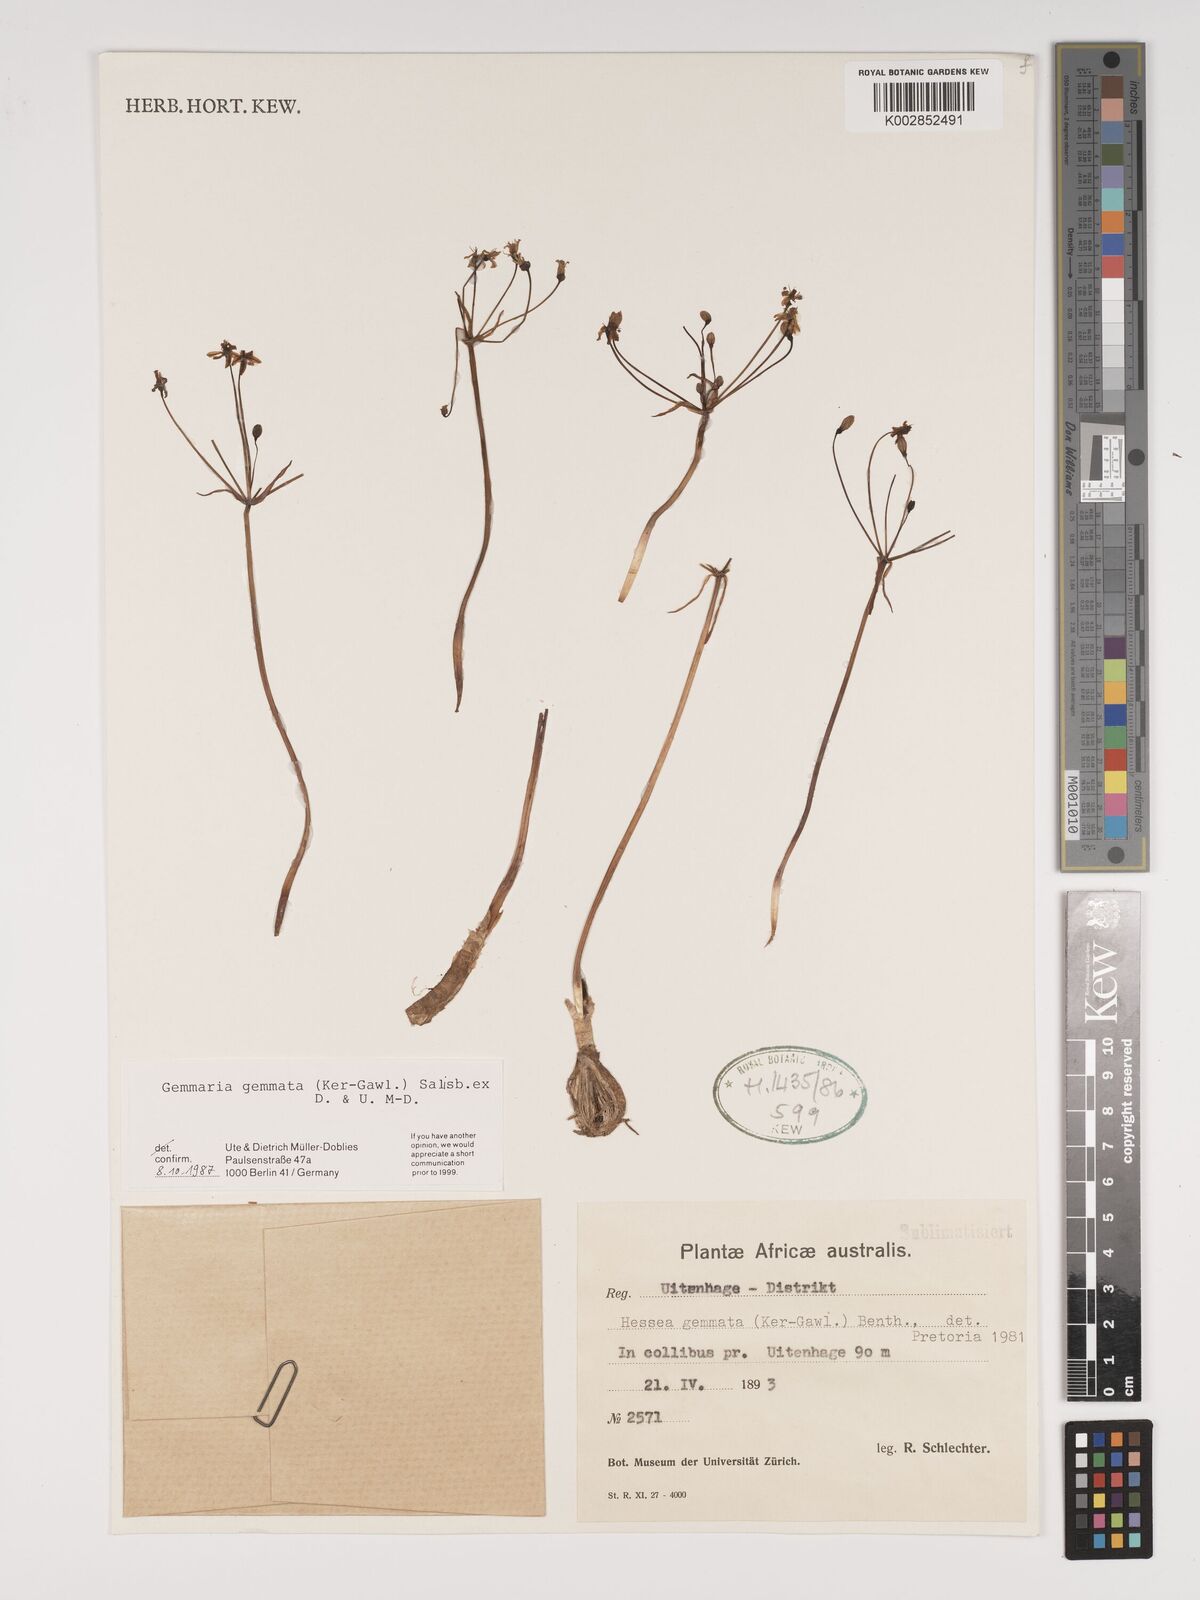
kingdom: Plantae
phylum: Tracheophyta
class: Liliopsida
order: Asparagales
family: Amaryllidaceae
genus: Strumaria
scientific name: Strumaria gemmata
